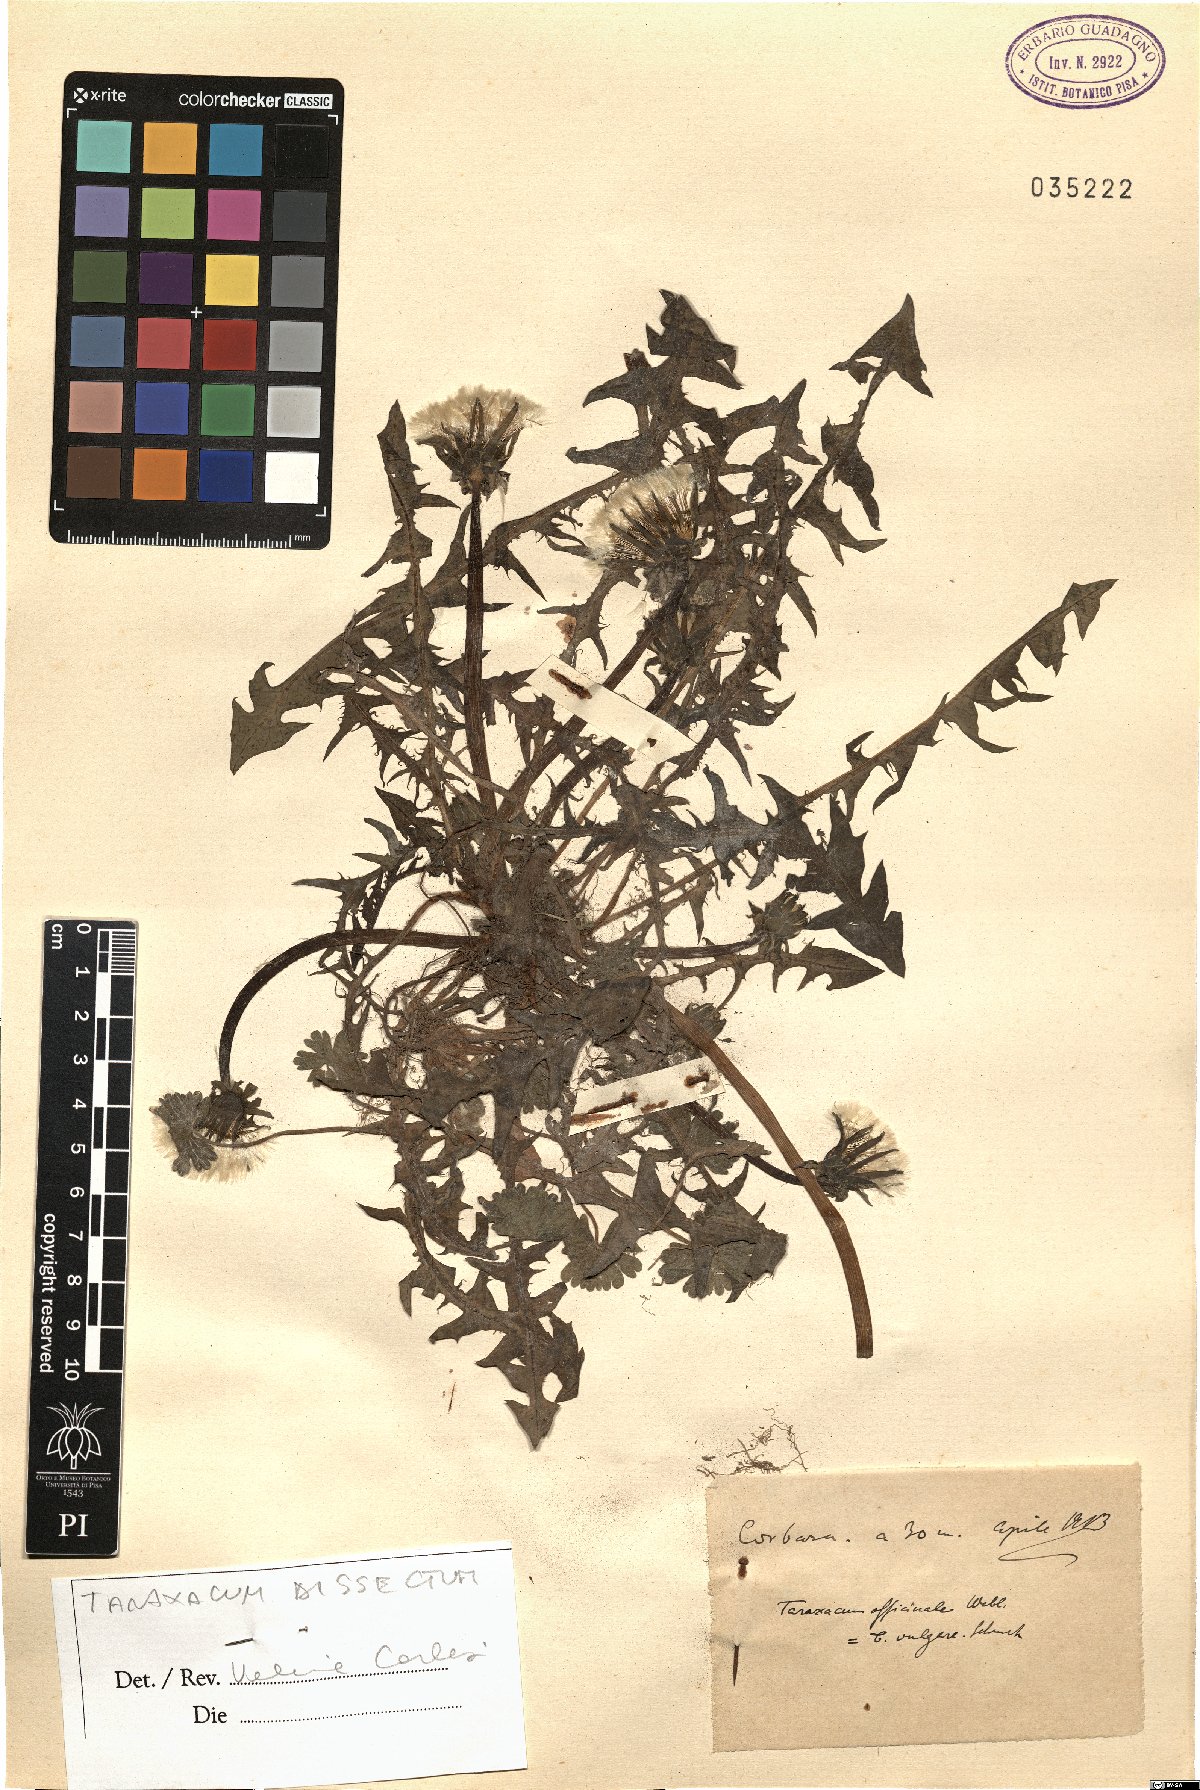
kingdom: Plantae
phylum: Tracheophyta
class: Magnoliopsida
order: Asterales
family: Asteraceae
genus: Taraxacum
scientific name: Taraxacum dissectum
